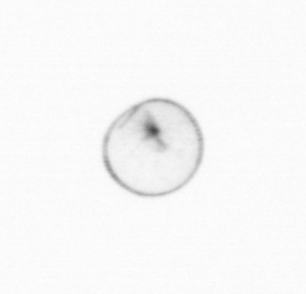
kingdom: Chromista
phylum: Myzozoa
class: Dinophyceae
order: Noctilucales
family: Noctilucaceae
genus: Noctiluca
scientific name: Noctiluca scintillans
